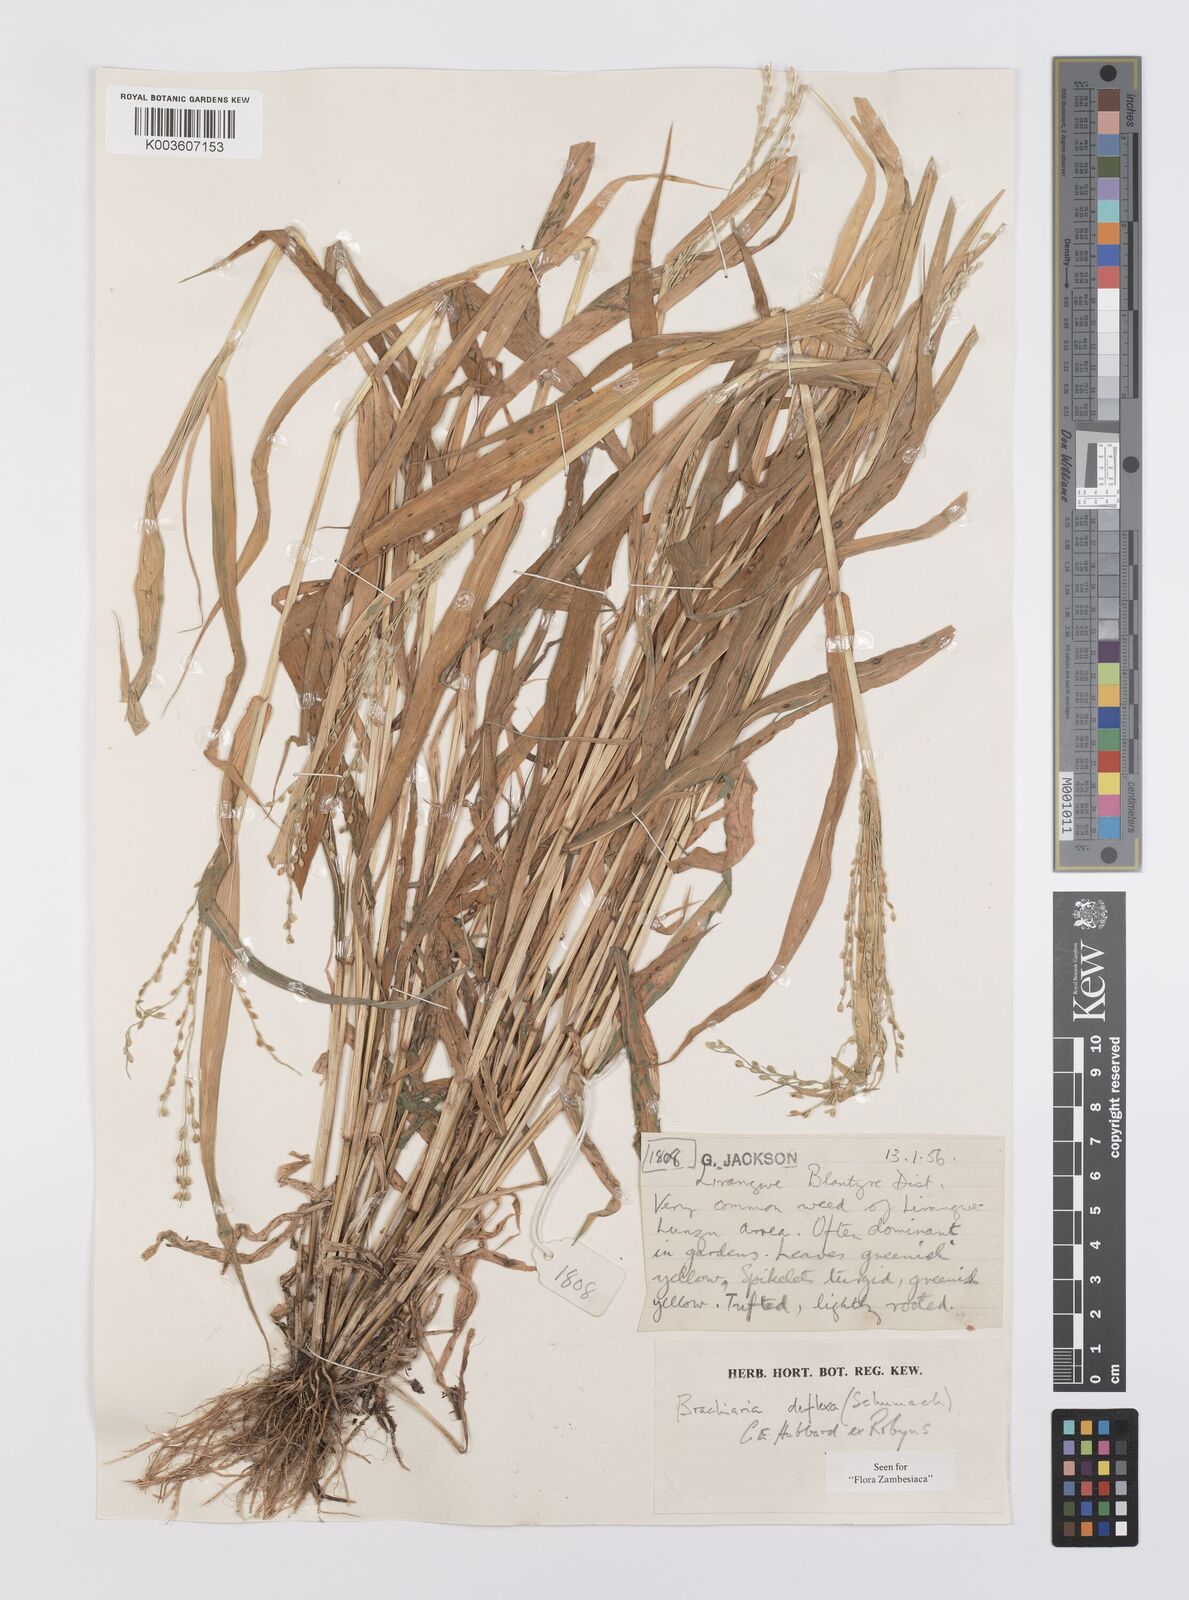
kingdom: Plantae
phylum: Tracheophyta
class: Liliopsida
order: Poales
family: Poaceae
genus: Urochloa
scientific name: Urochloa deflexa
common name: Guinea millet
